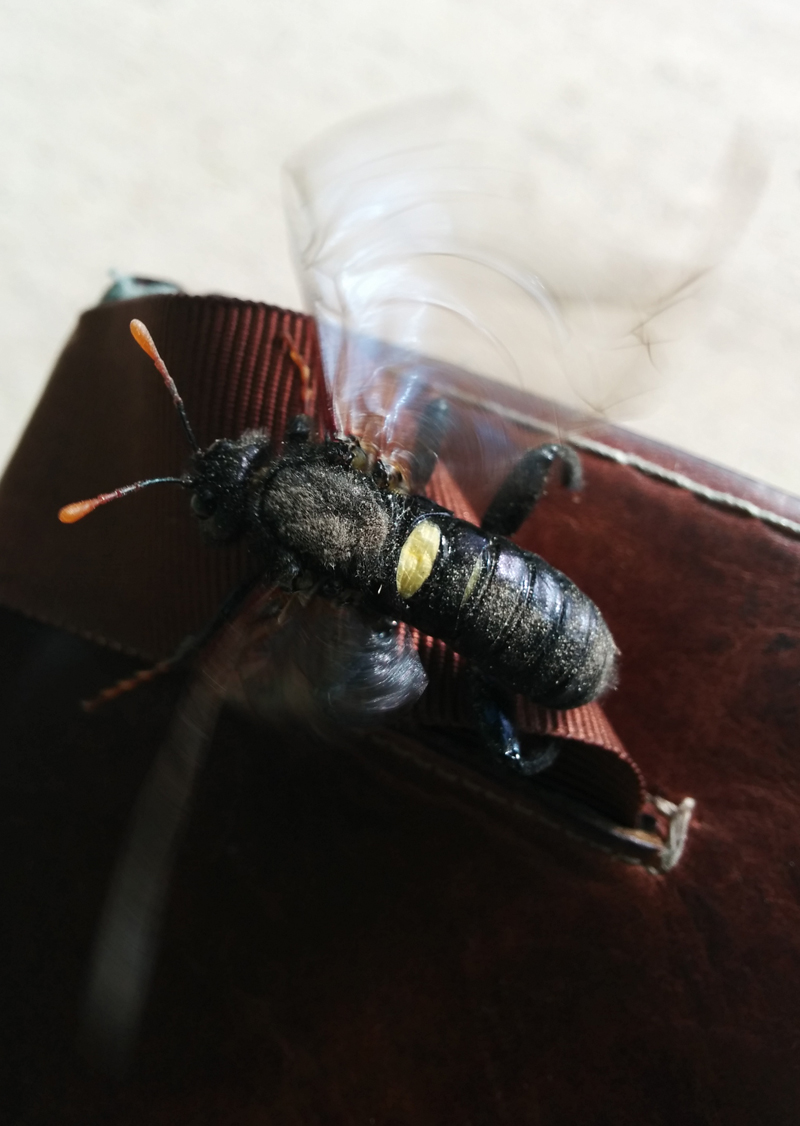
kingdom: Animalia
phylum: Arthropoda
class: Insecta
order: Hymenoptera
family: Cimbicidae
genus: Cimbex
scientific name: Cimbex femoratus
